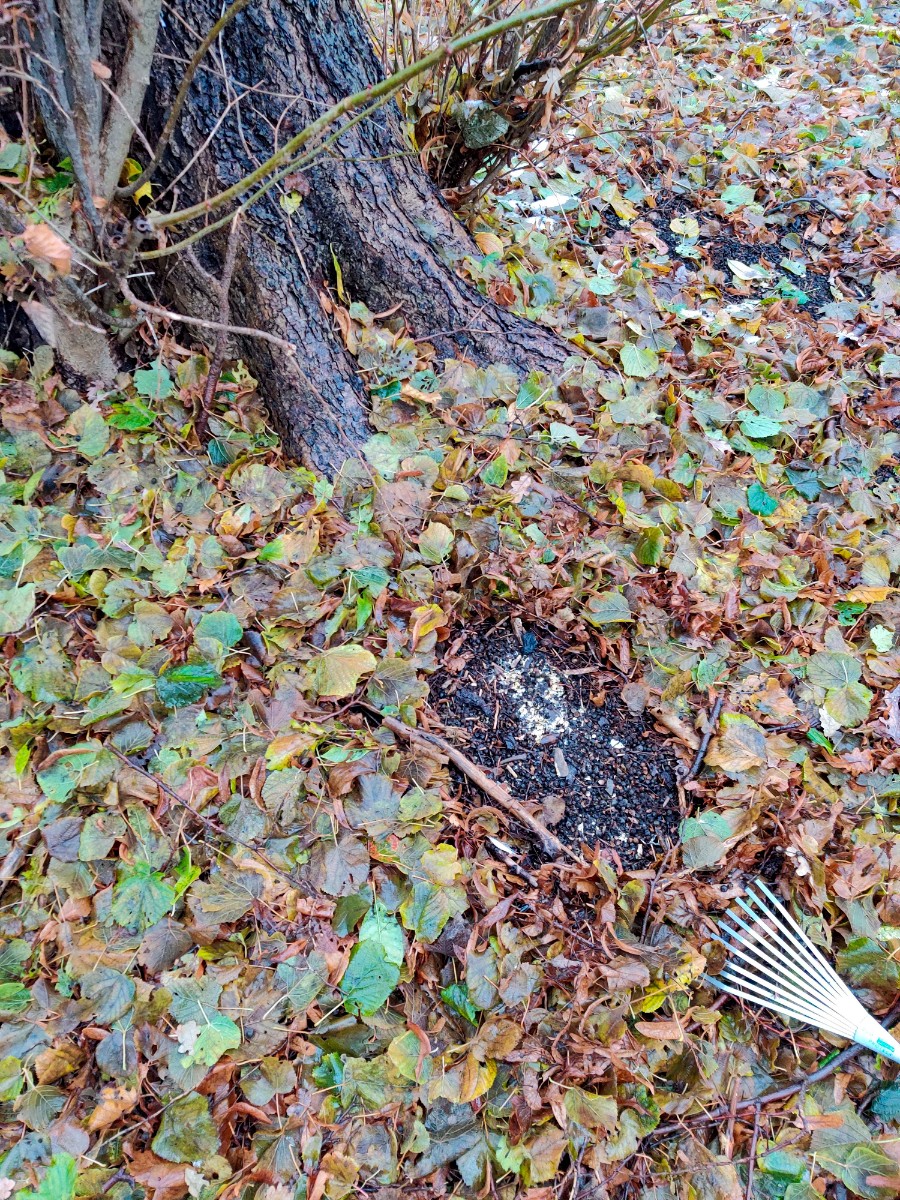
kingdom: Fungi
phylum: Basidiomycota
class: Agaricomycetes
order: Agaricales
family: Stephanosporaceae
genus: Lindtneria
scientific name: Lindtneria panphyliensis
